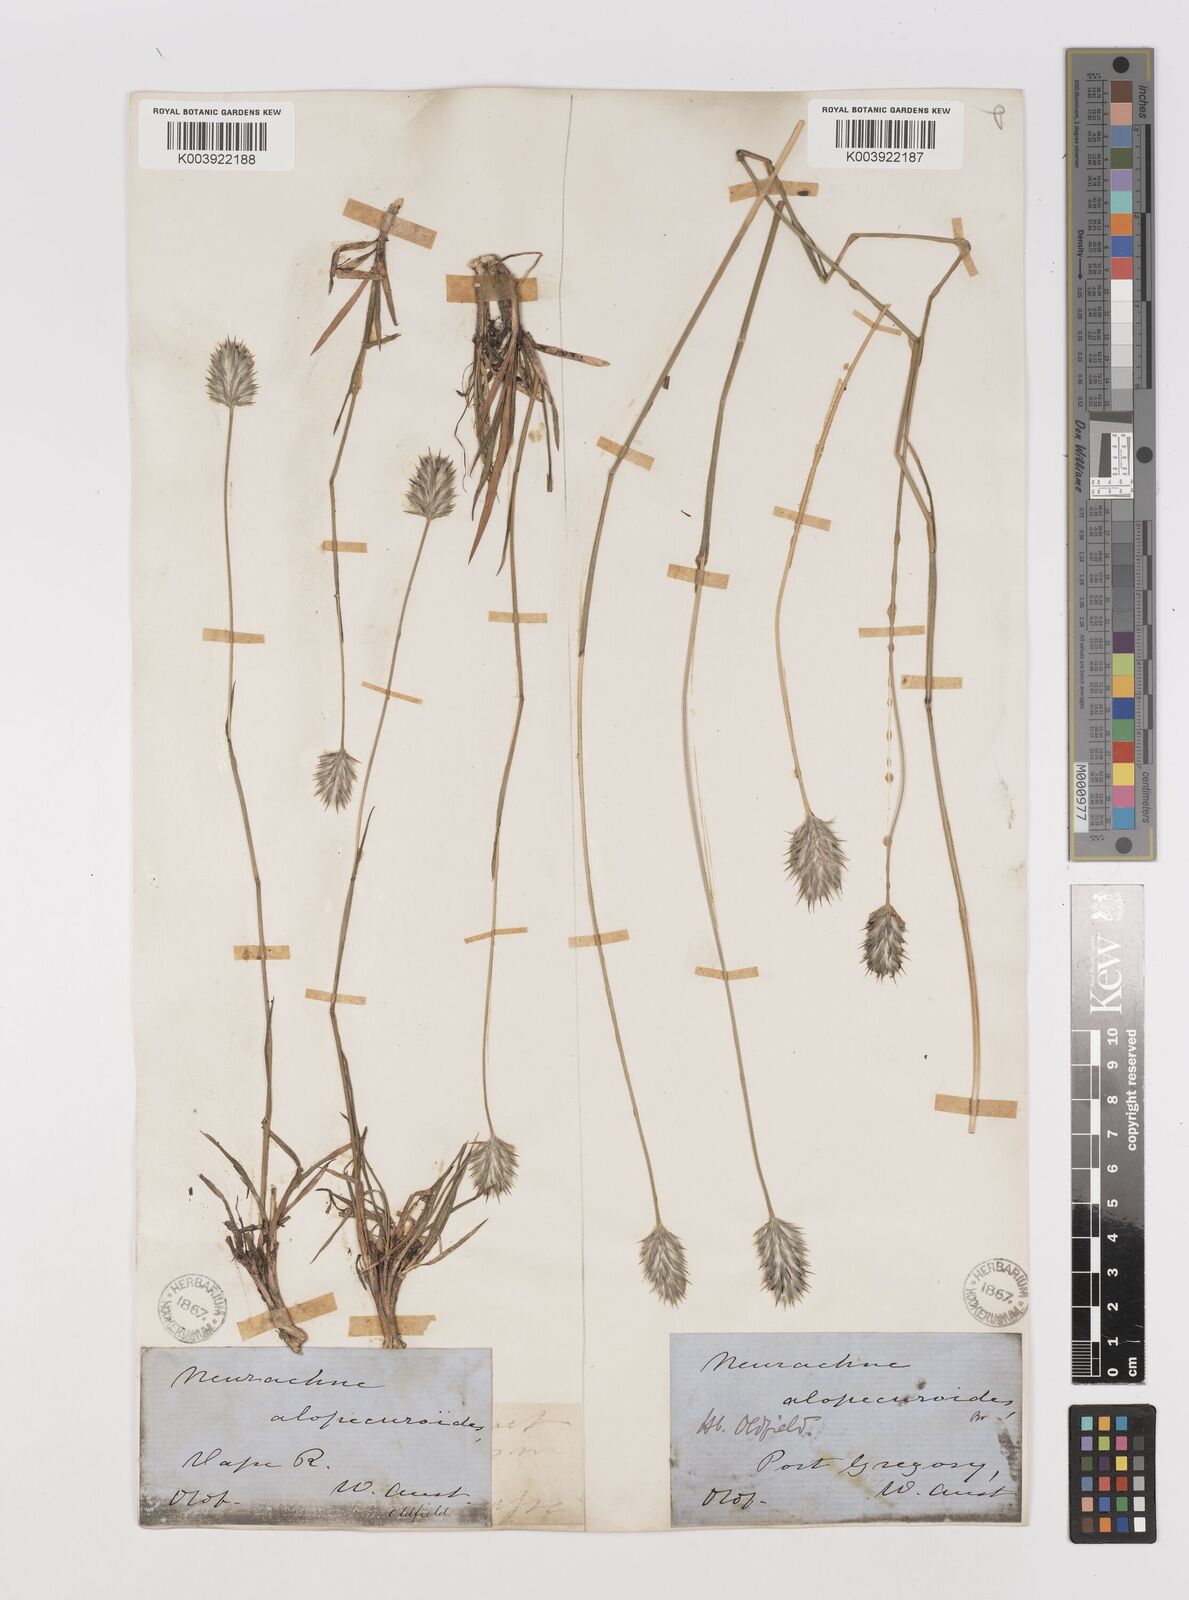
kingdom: Plantae
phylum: Tracheophyta
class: Liliopsida
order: Poales
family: Poaceae
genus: Neurachne
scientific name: Neurachne alopecuroidea
